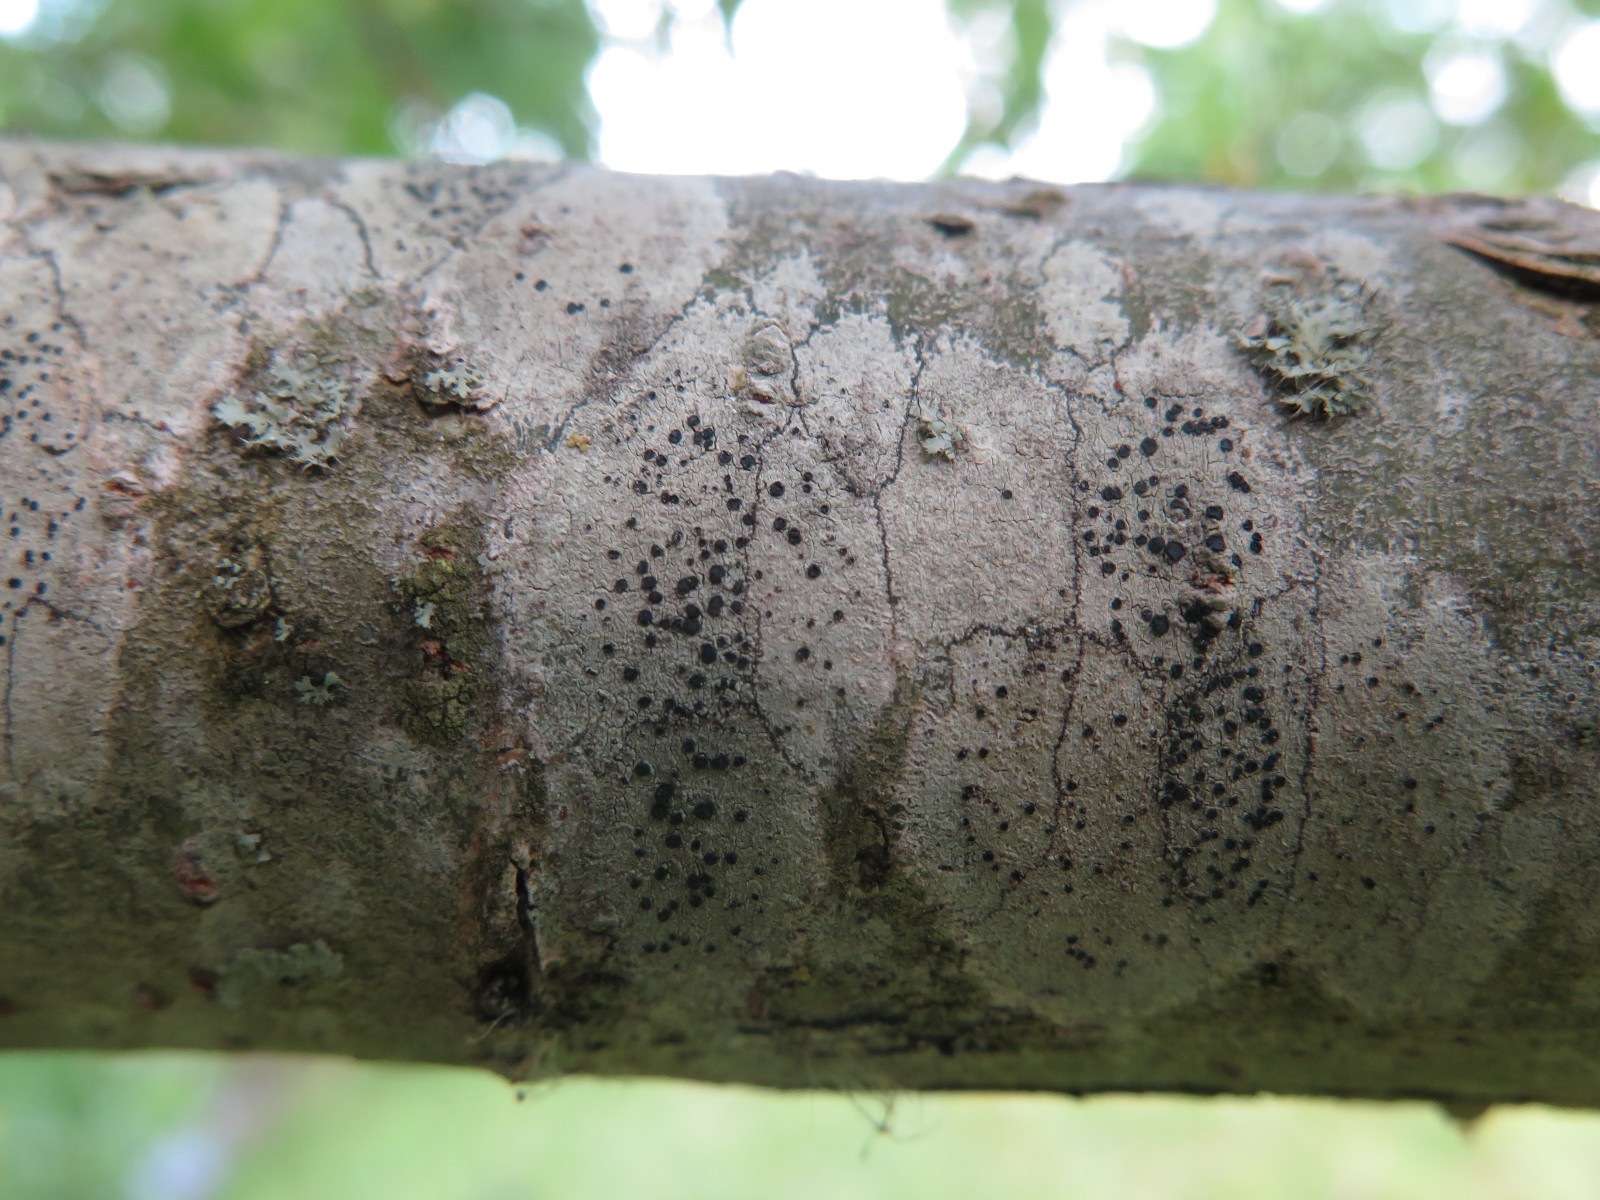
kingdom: Fungi
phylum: Ascomycota
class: Lecanoromycetes
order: Lecanorales
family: Lecanoraceae
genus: Lecidella
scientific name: Lecidella elaeochroma
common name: grågrøn skivelav
